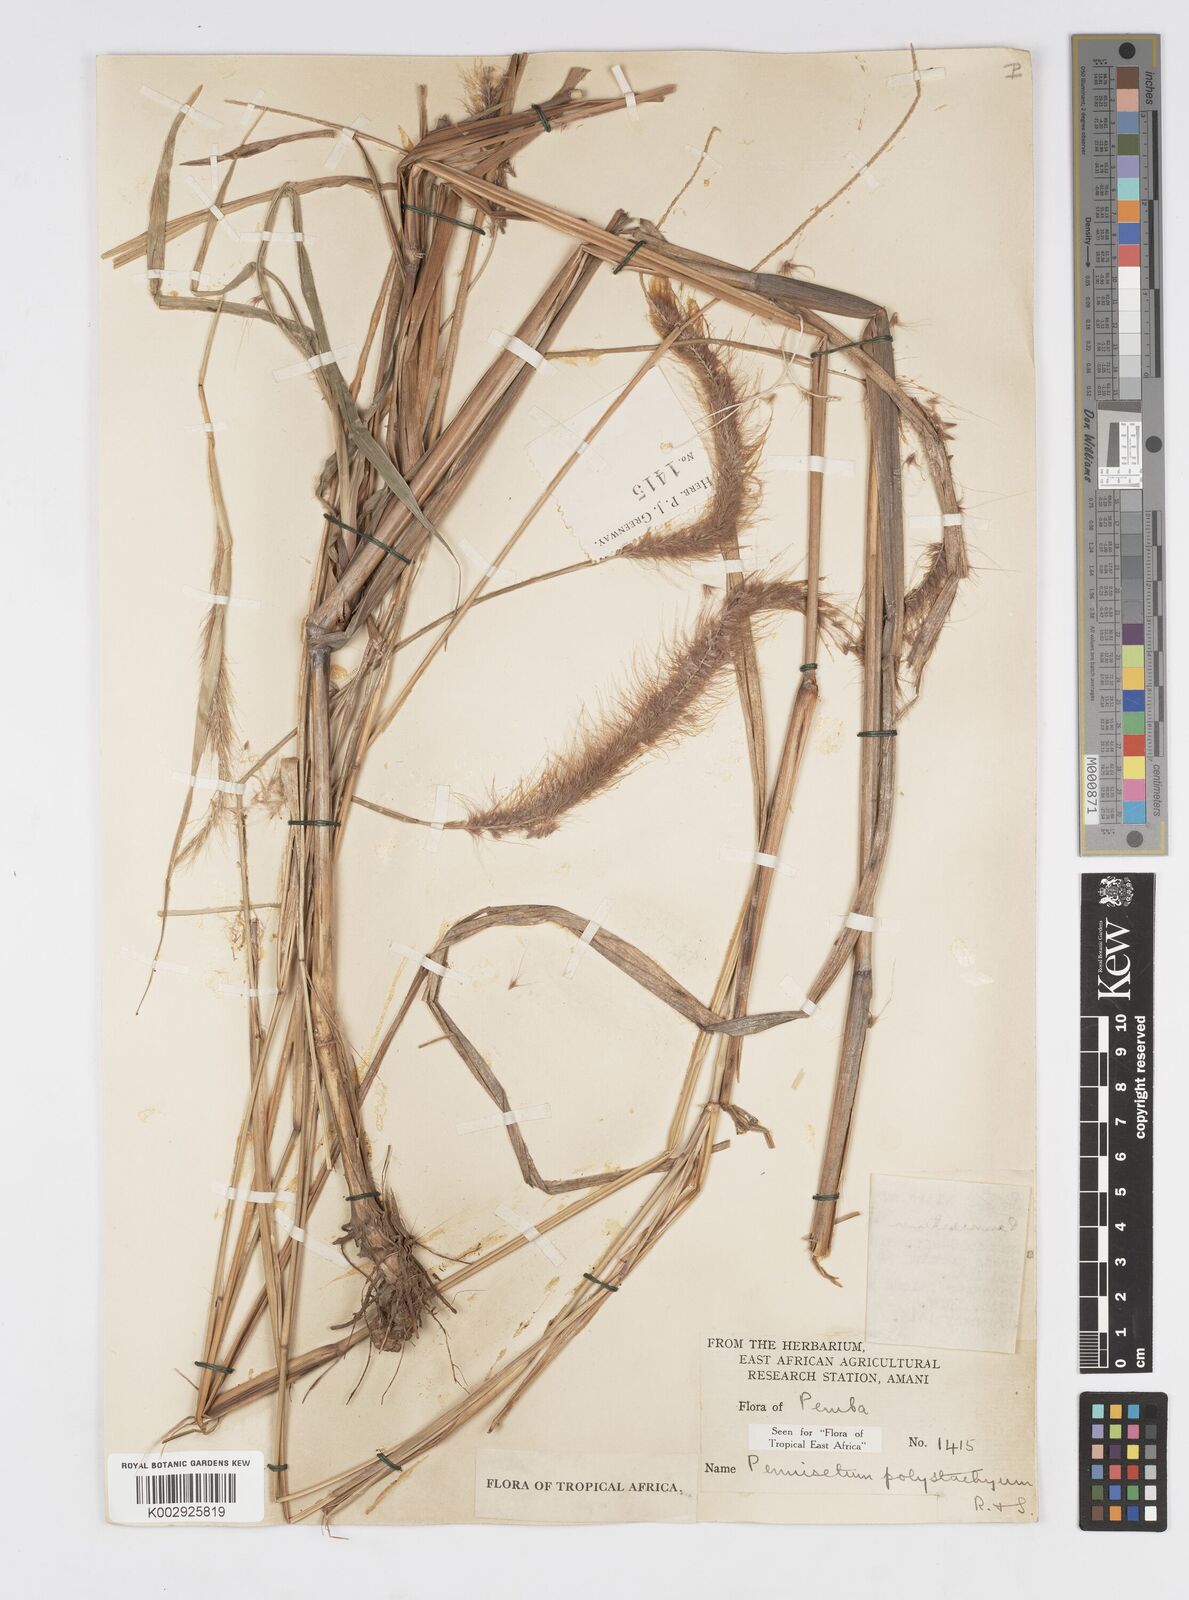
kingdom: Plantae
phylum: Tracheophyta
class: Liliopsida
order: Poales
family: Poaceae
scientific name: Poaceae
